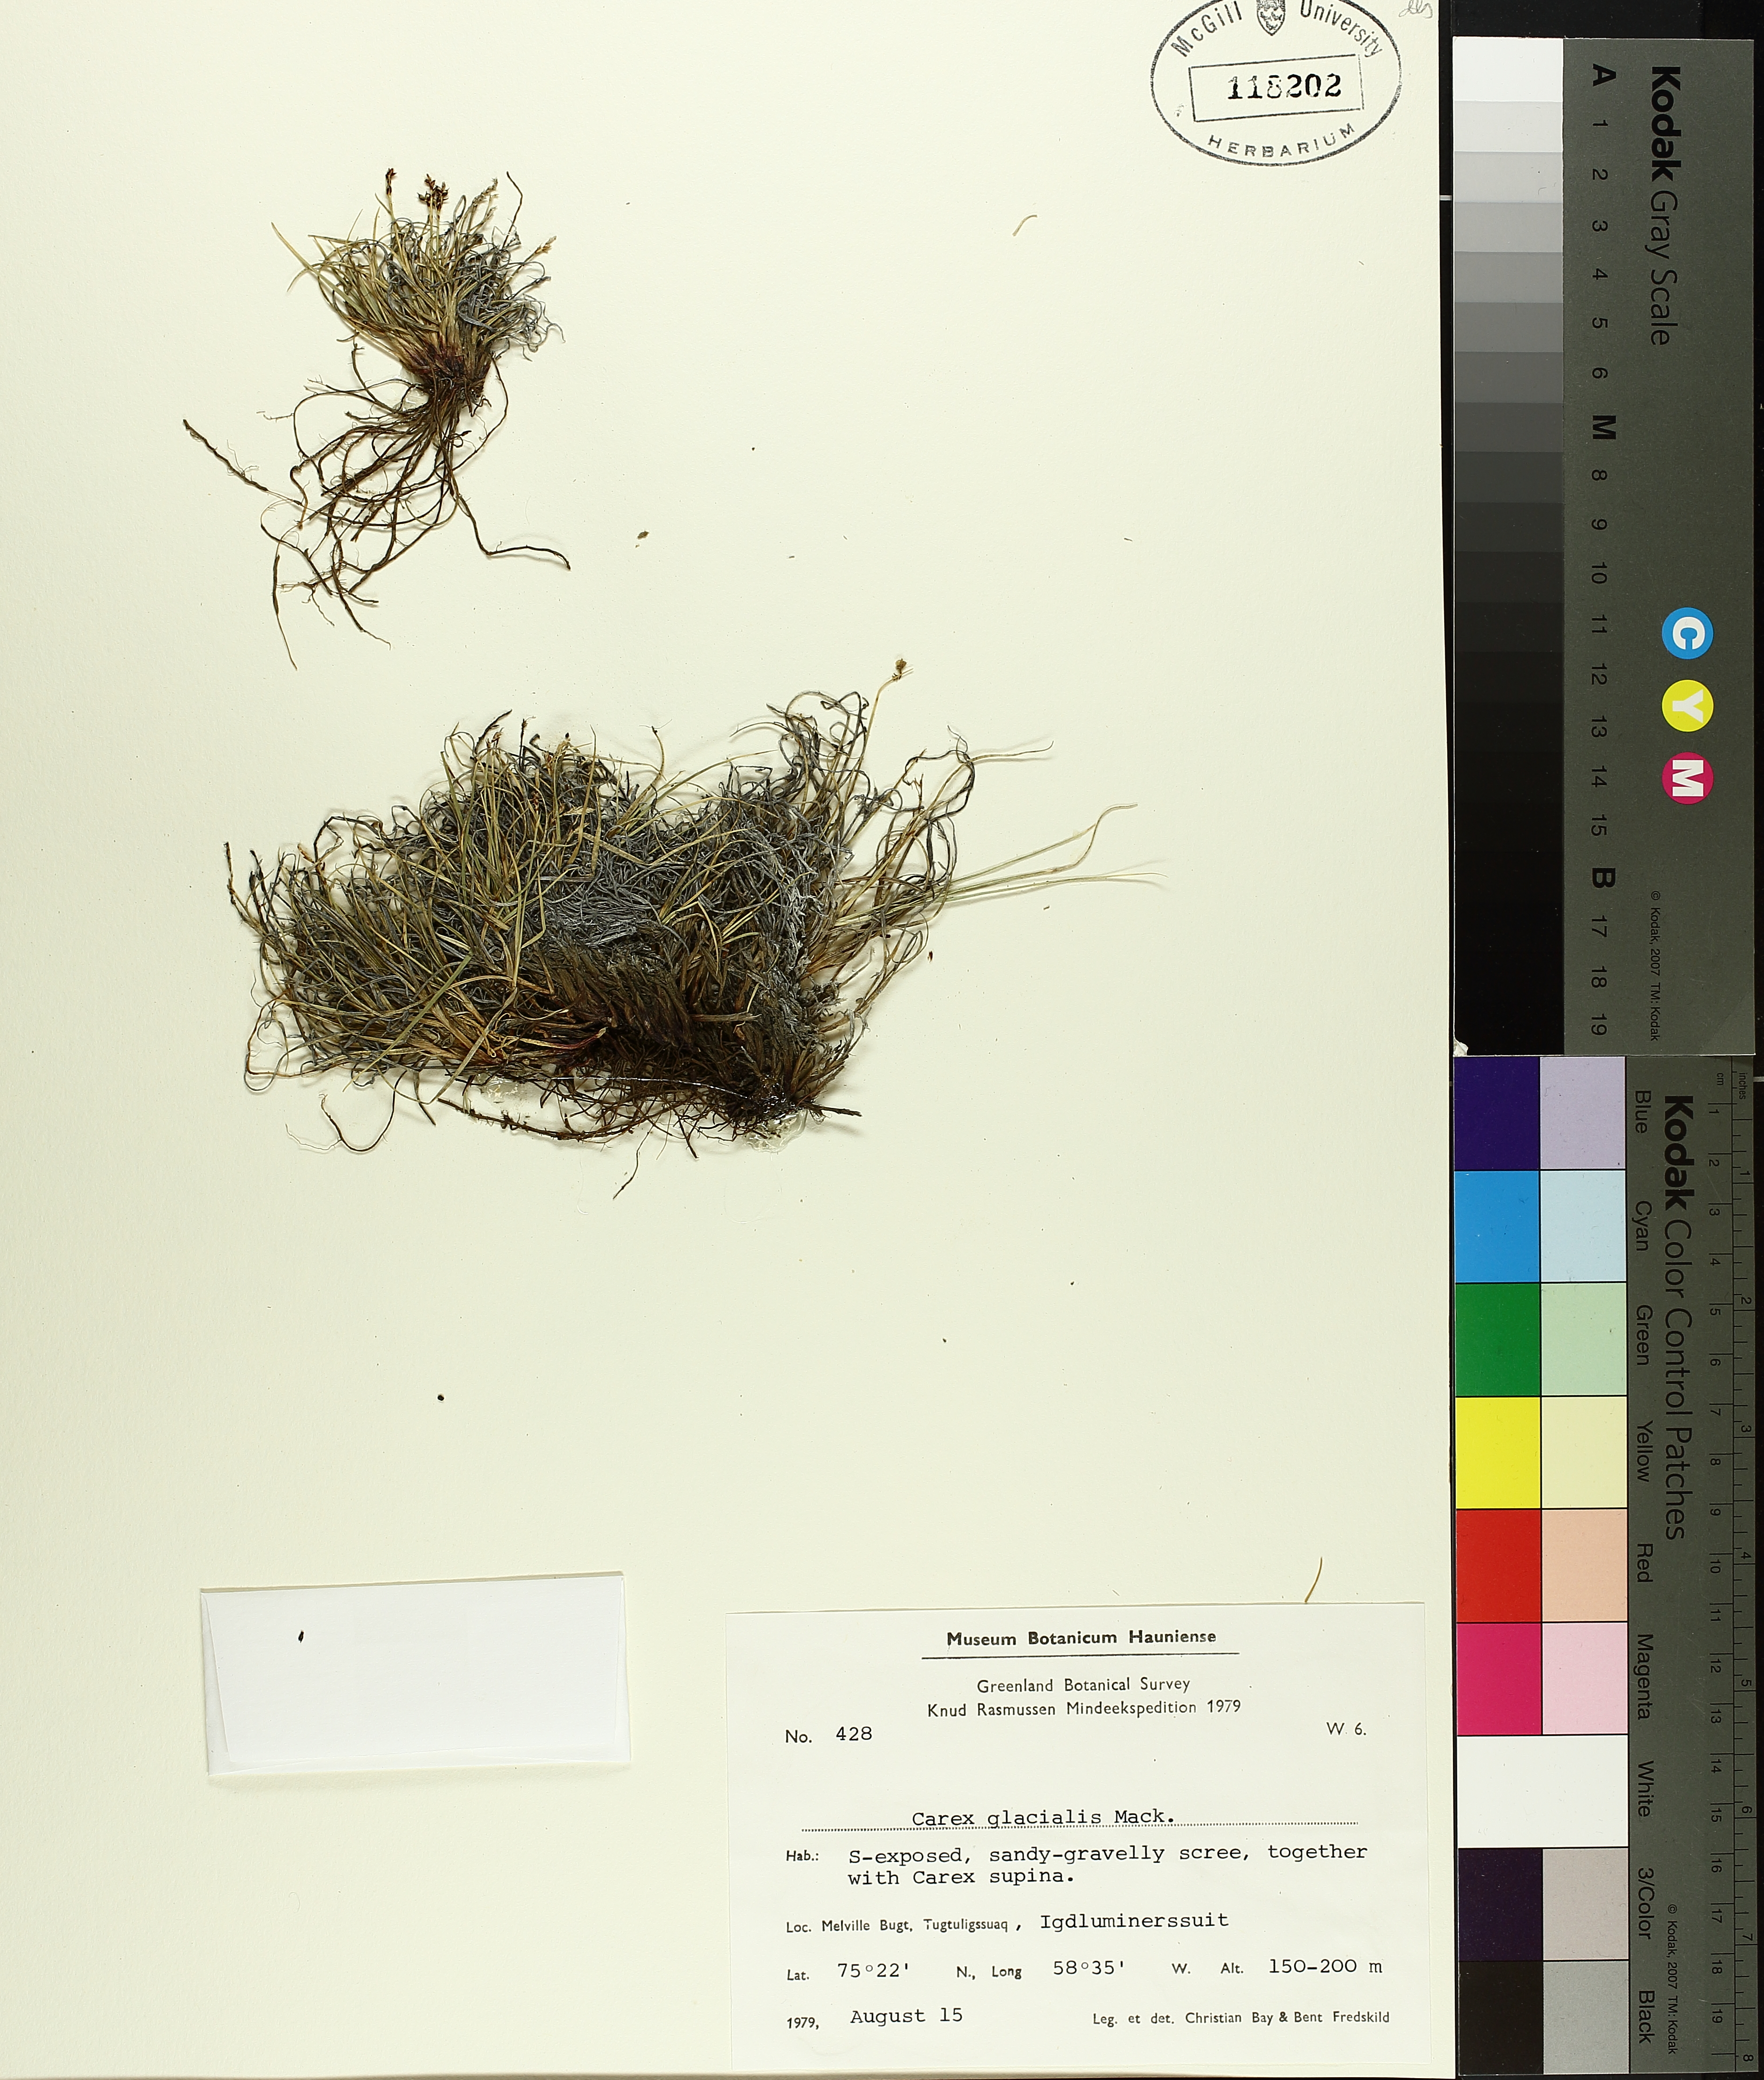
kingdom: Plantae
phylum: Tracheophyta
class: Liliopsida
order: Poales
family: Cyperaceae
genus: Carex
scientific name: Carex glacialis
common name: Newfoundland sedge
